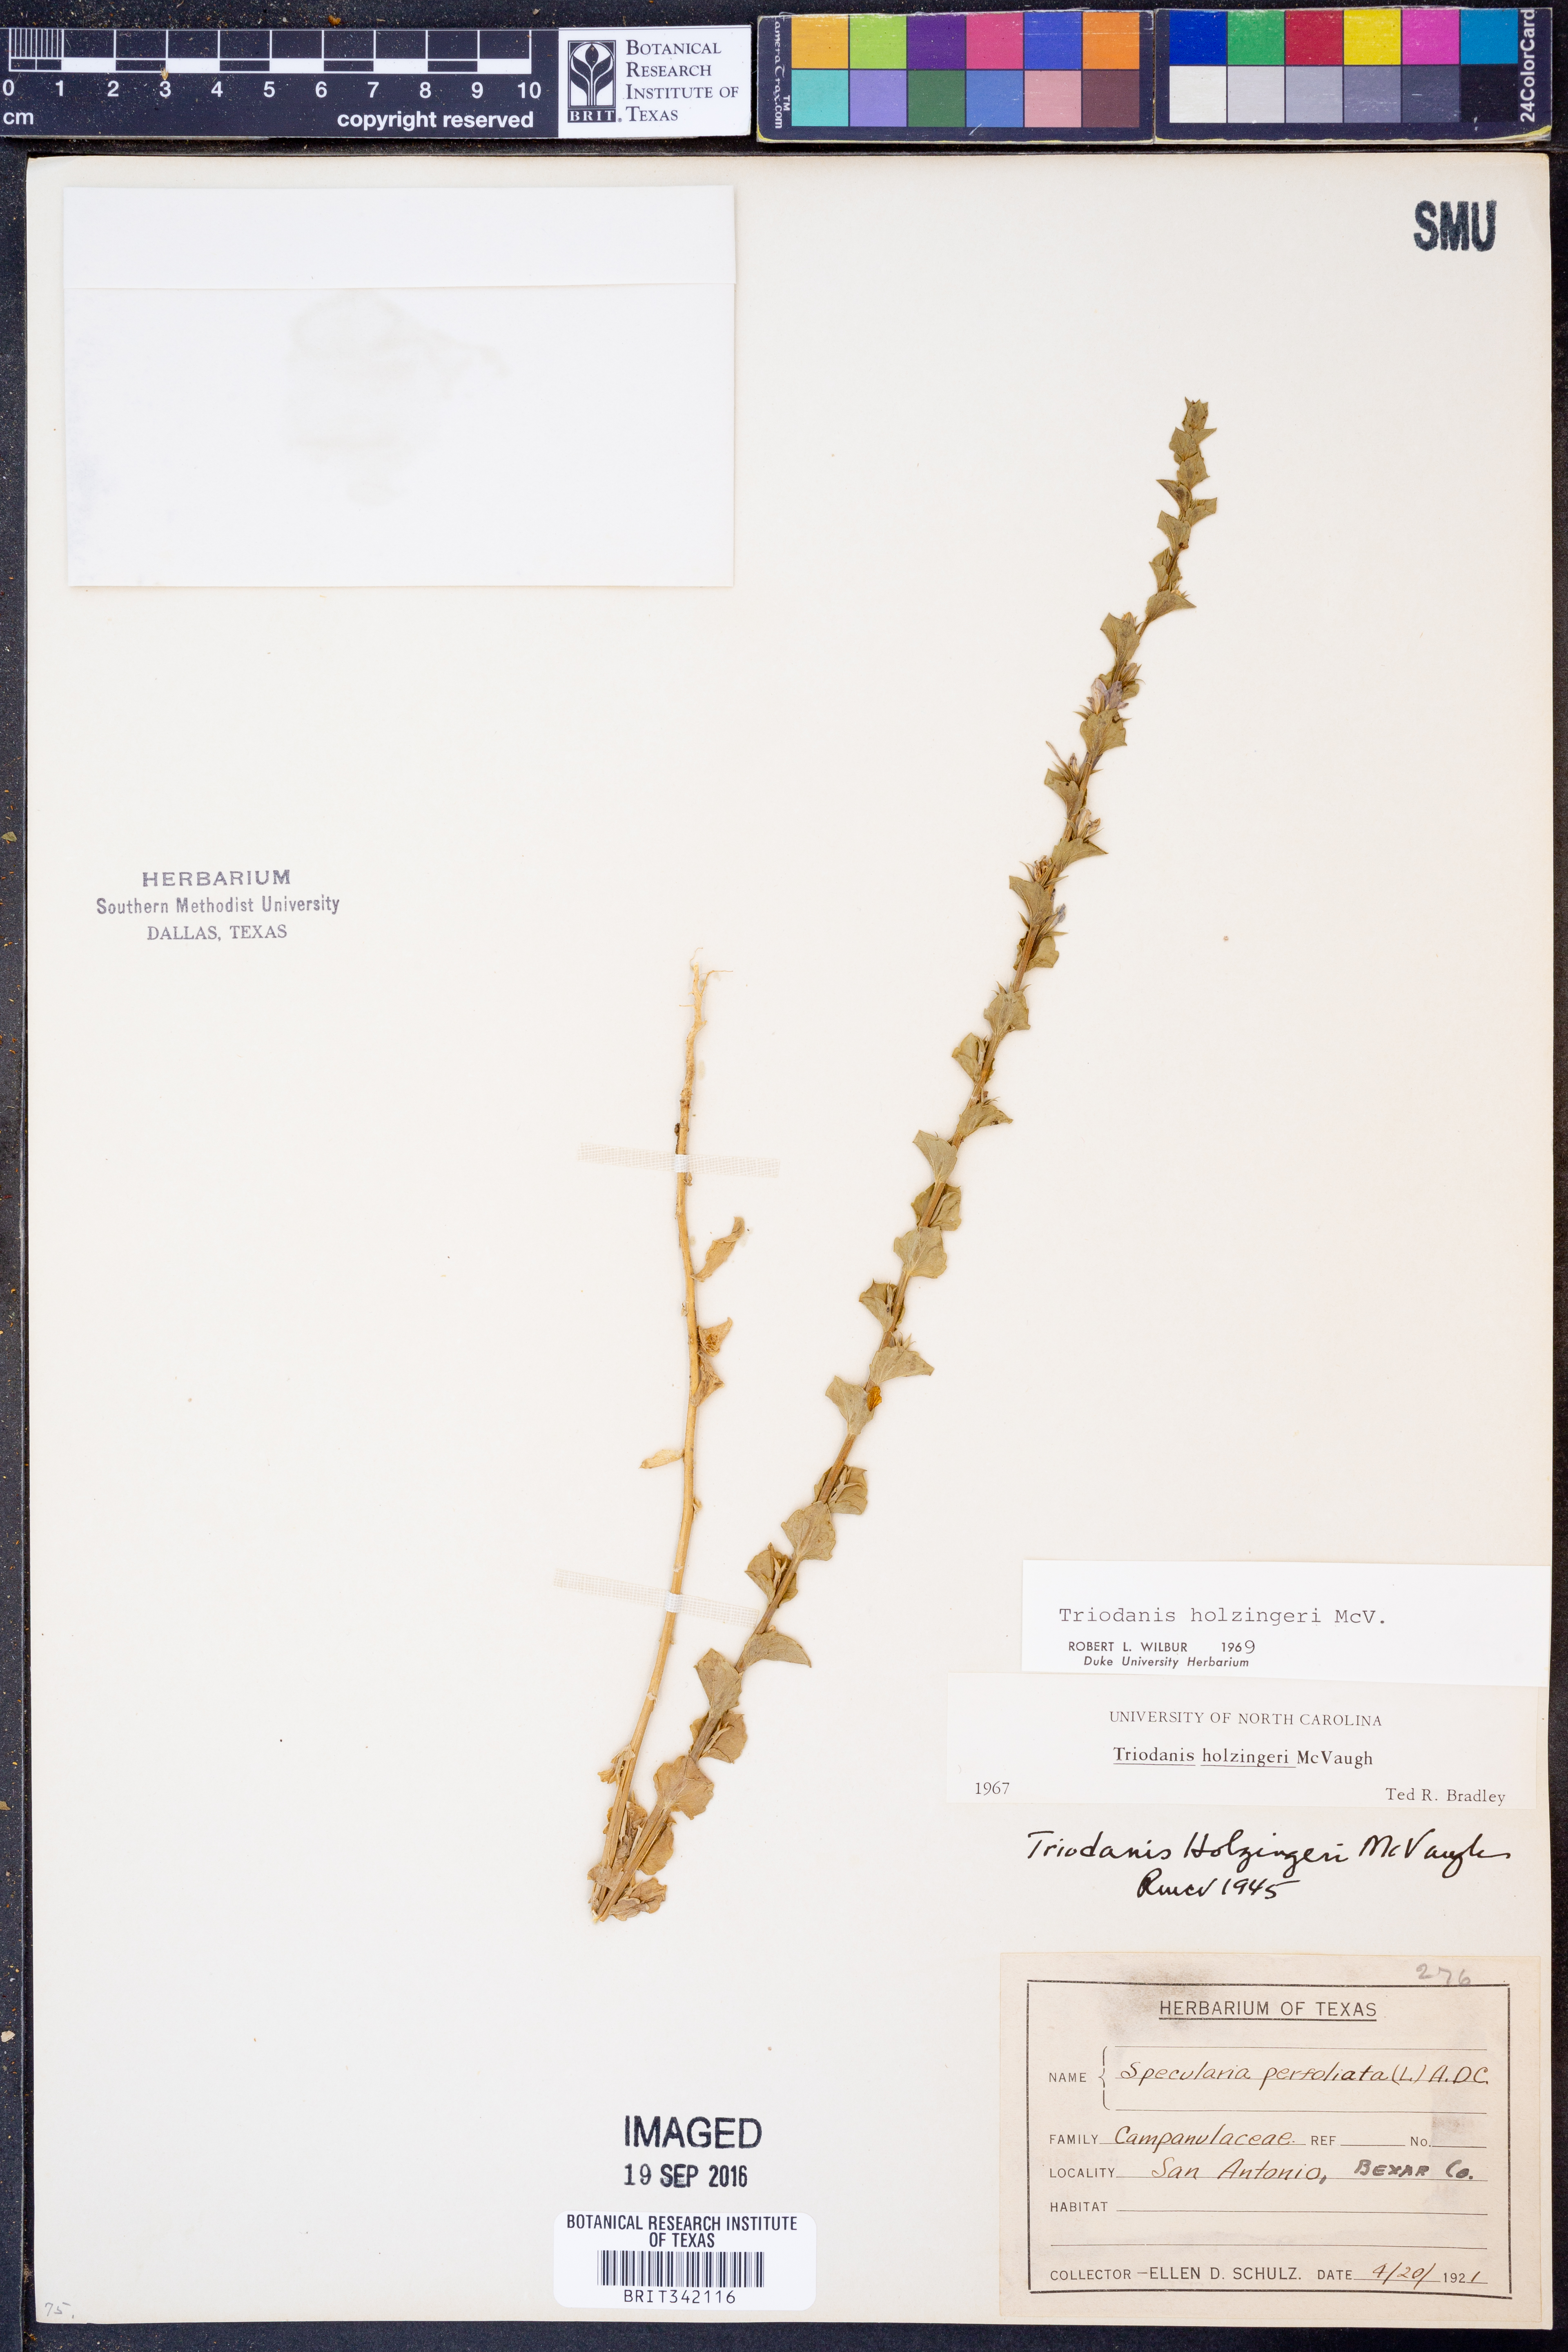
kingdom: Plantae
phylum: Tracheophyta
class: Magnoliopsida
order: Asterales
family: Campanulaceae
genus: Triodanis
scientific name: Triodanis holzingeri
